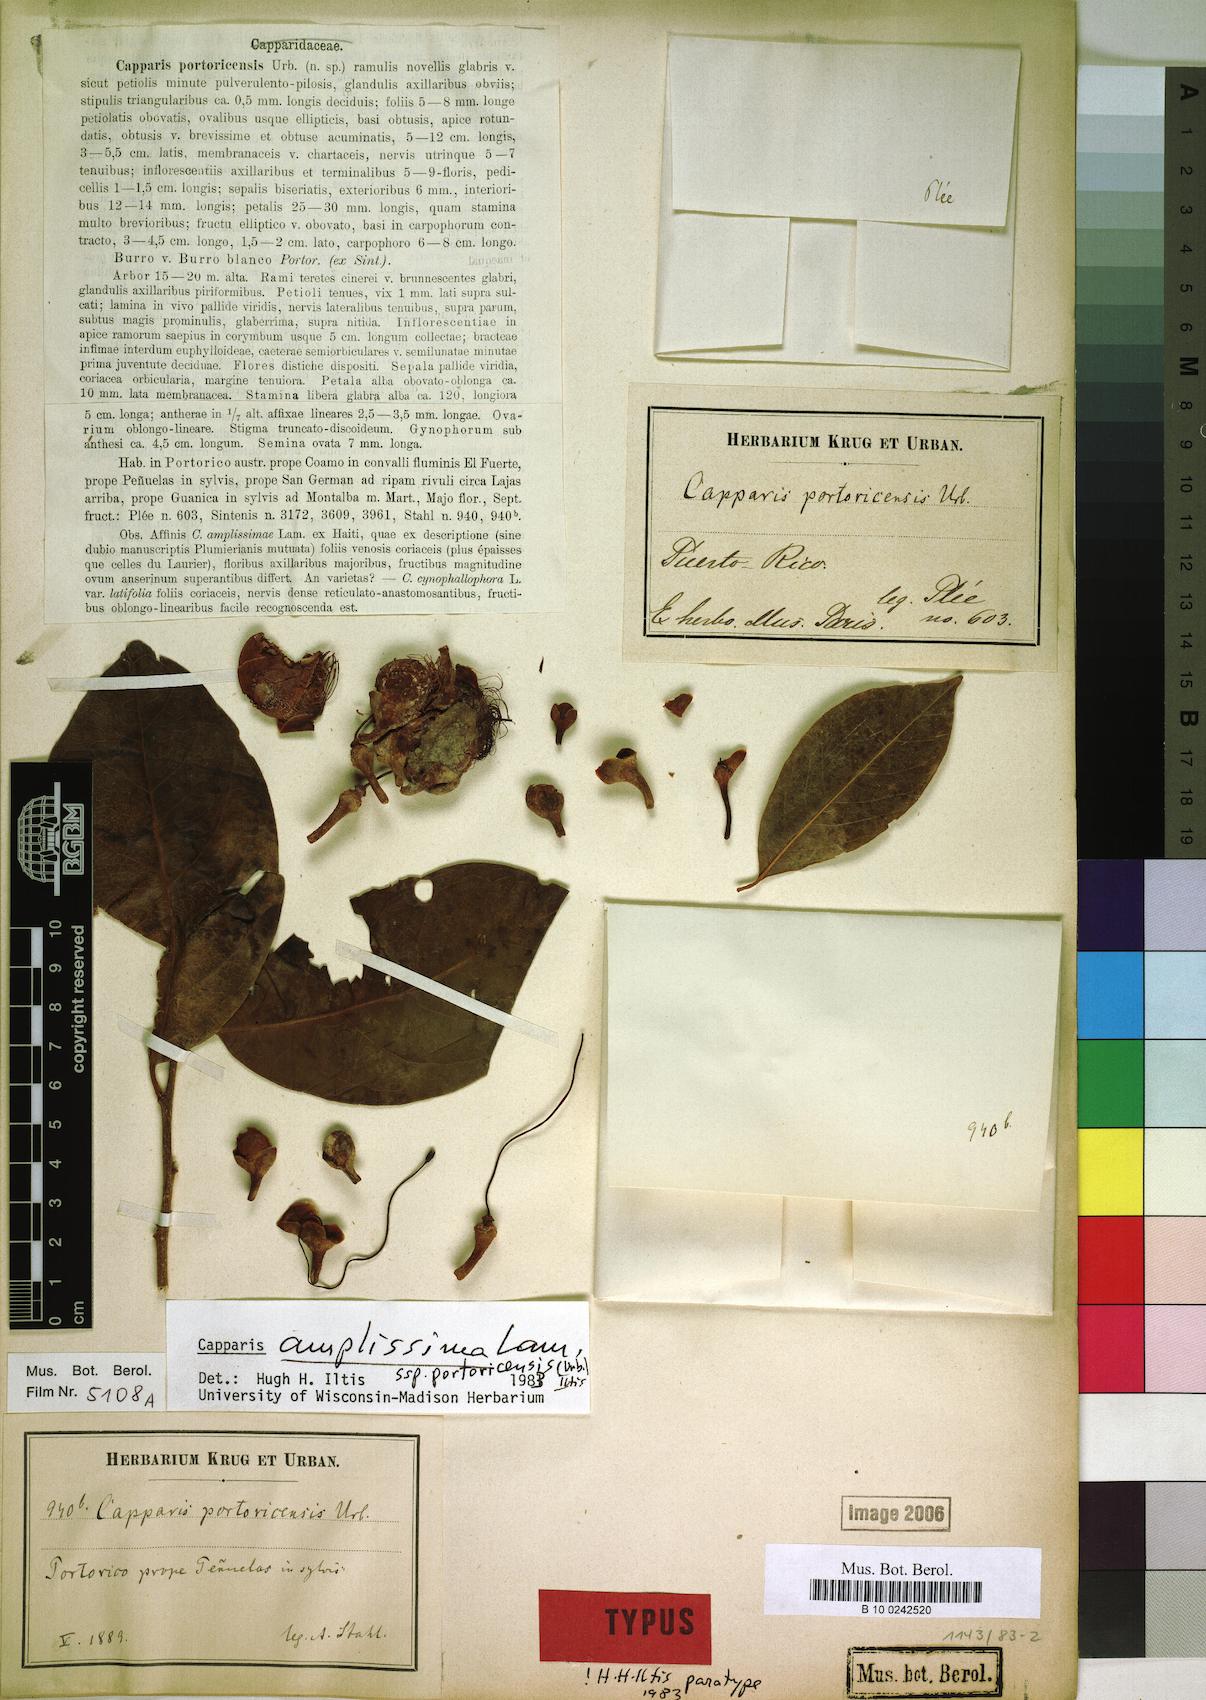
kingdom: Plantae
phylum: Tracheophyta
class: Magnoliopsida
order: Brassicales
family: Capparaceae
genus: Cynophalla
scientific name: Cynophalla amplissima
